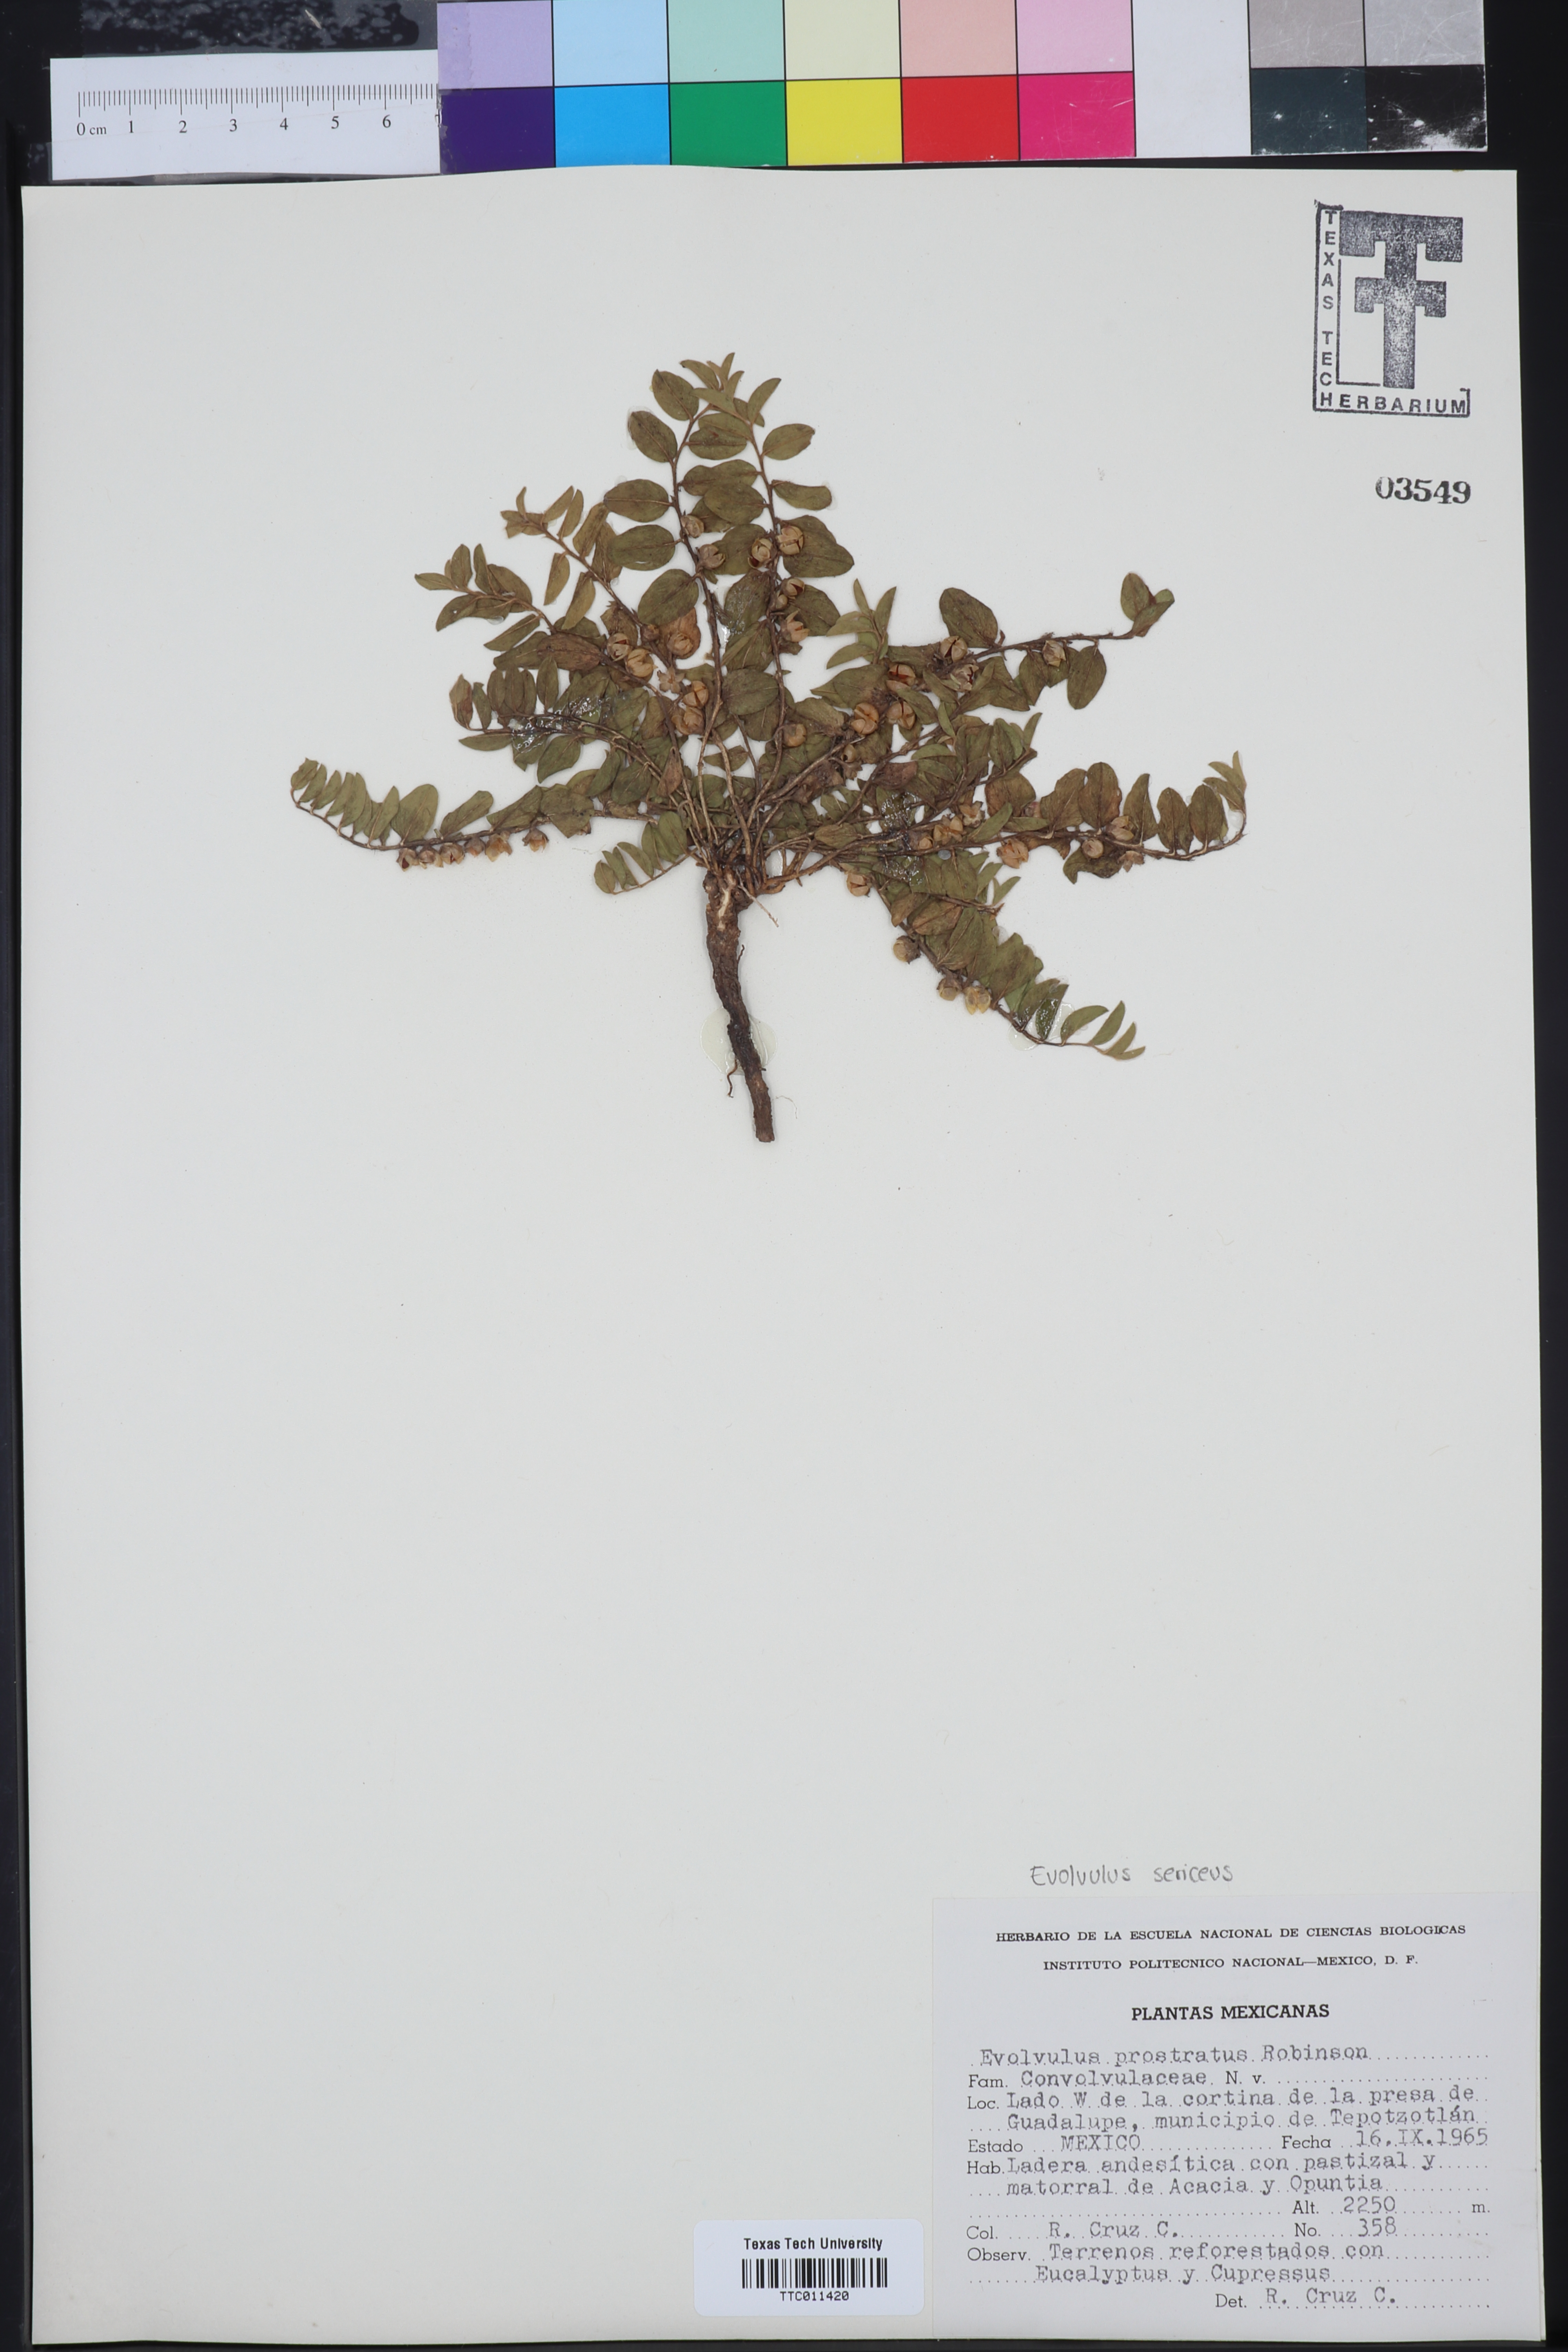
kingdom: Plantae
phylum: Tracheophyta
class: Magnoliopsida
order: Solanales
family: Convolvulaceae
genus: Evolvulus
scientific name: Evolvulus prostratus
